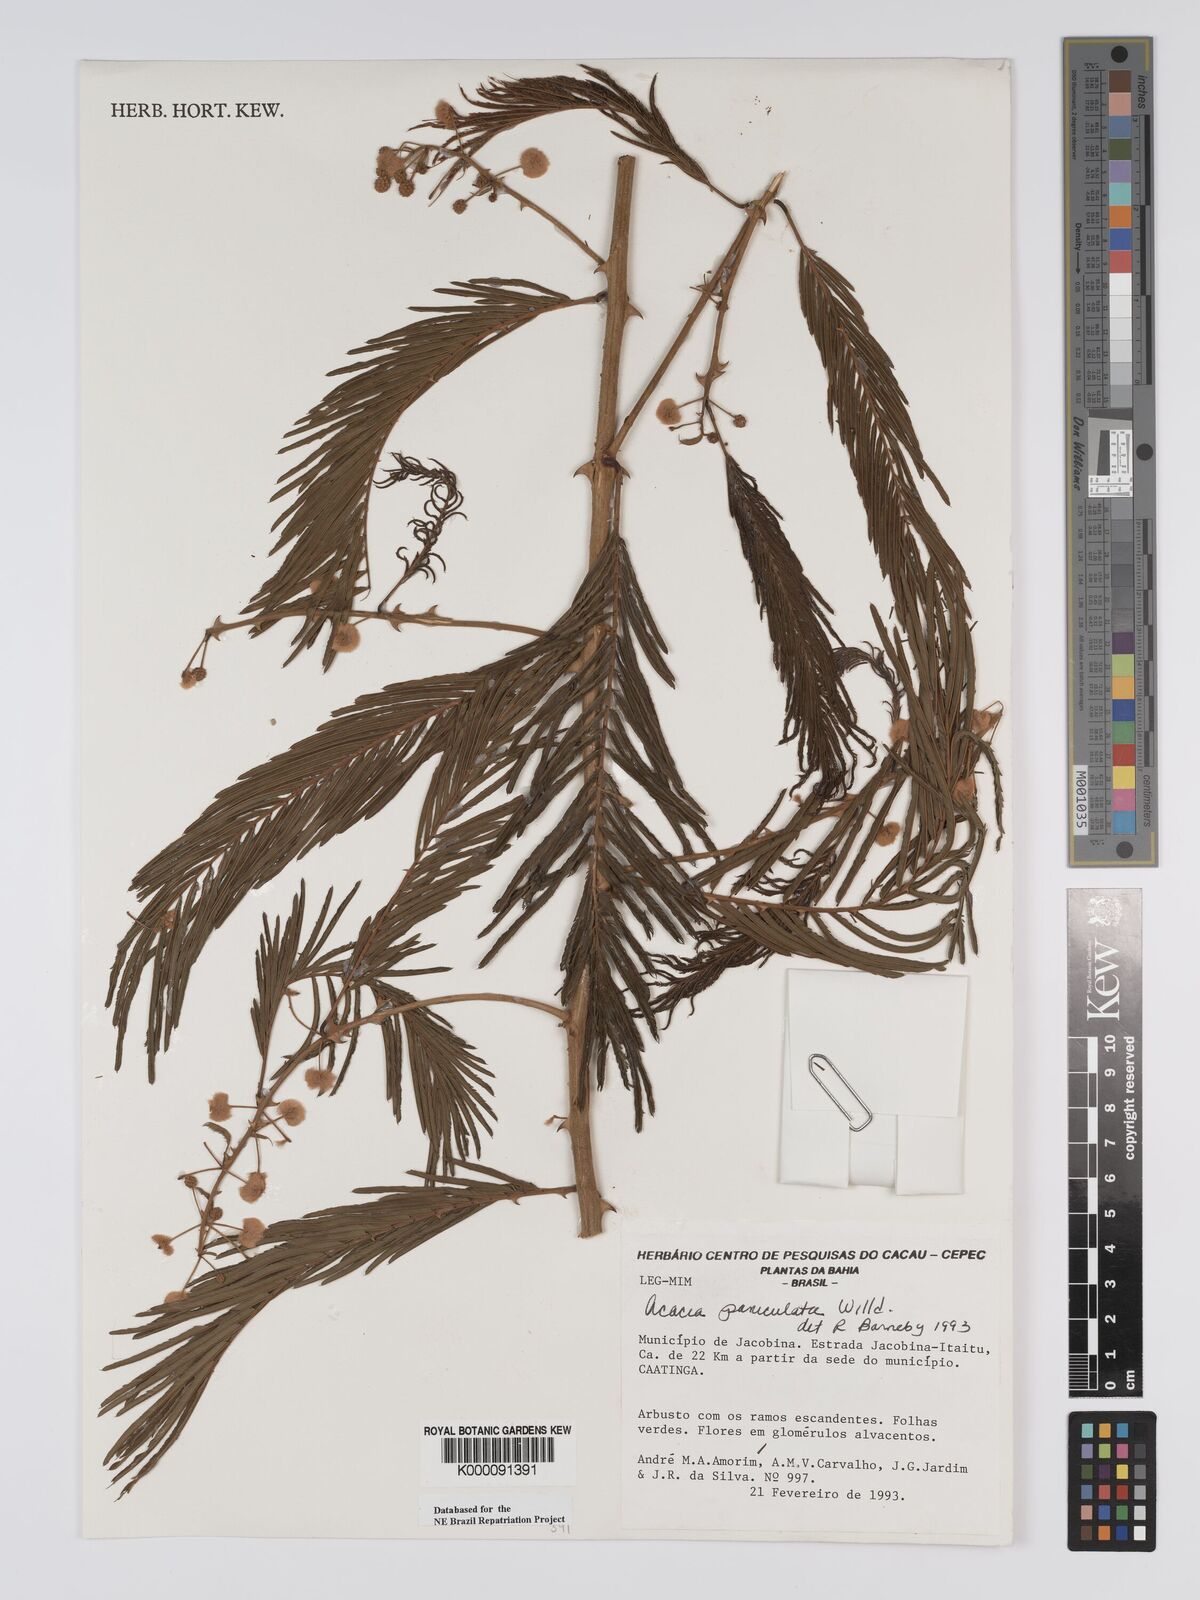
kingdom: Plantae
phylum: Tracheophyta
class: Magnoliopsida
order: Fabales
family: Fabaceae
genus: Senegalia
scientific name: Senegalia tenuifolia
